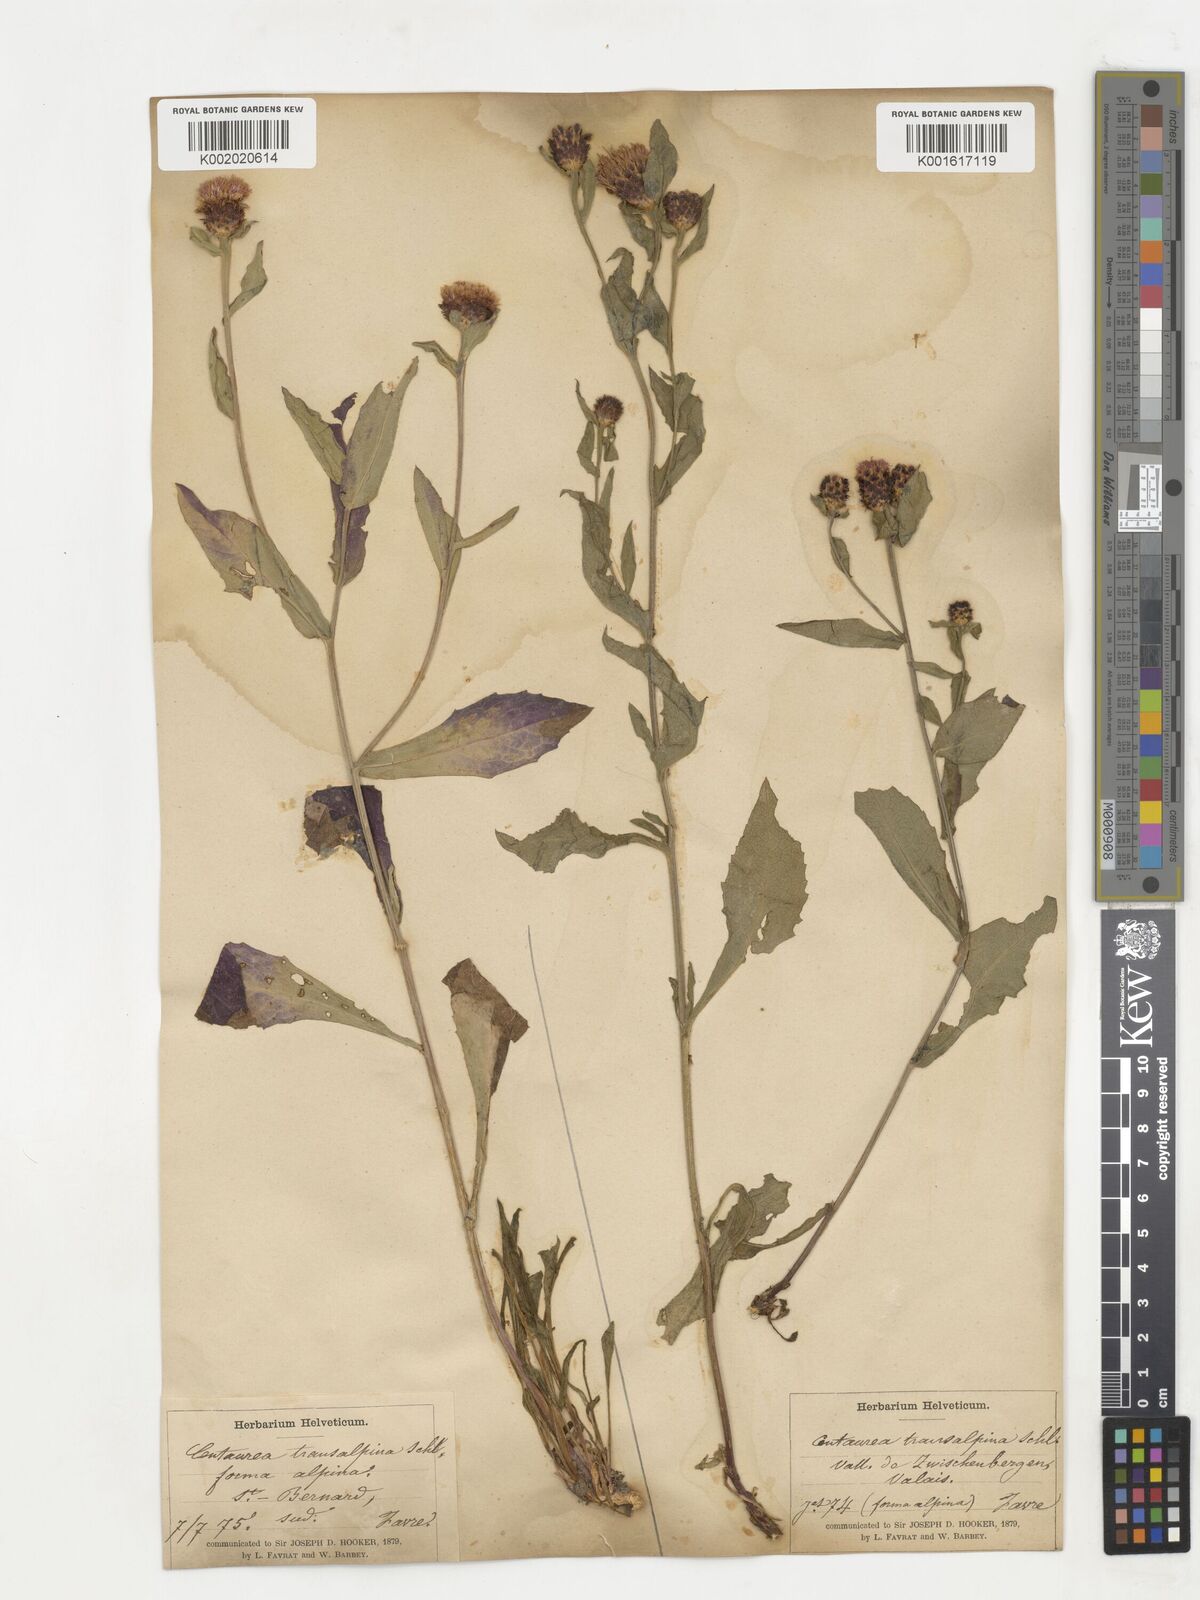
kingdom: Plantae
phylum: Tracheophyta
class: Magnoliopsida
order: Asterales
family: Asteraceae
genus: Centaurea
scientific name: Centaurea nigrescens
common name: Tyrol knapweed
